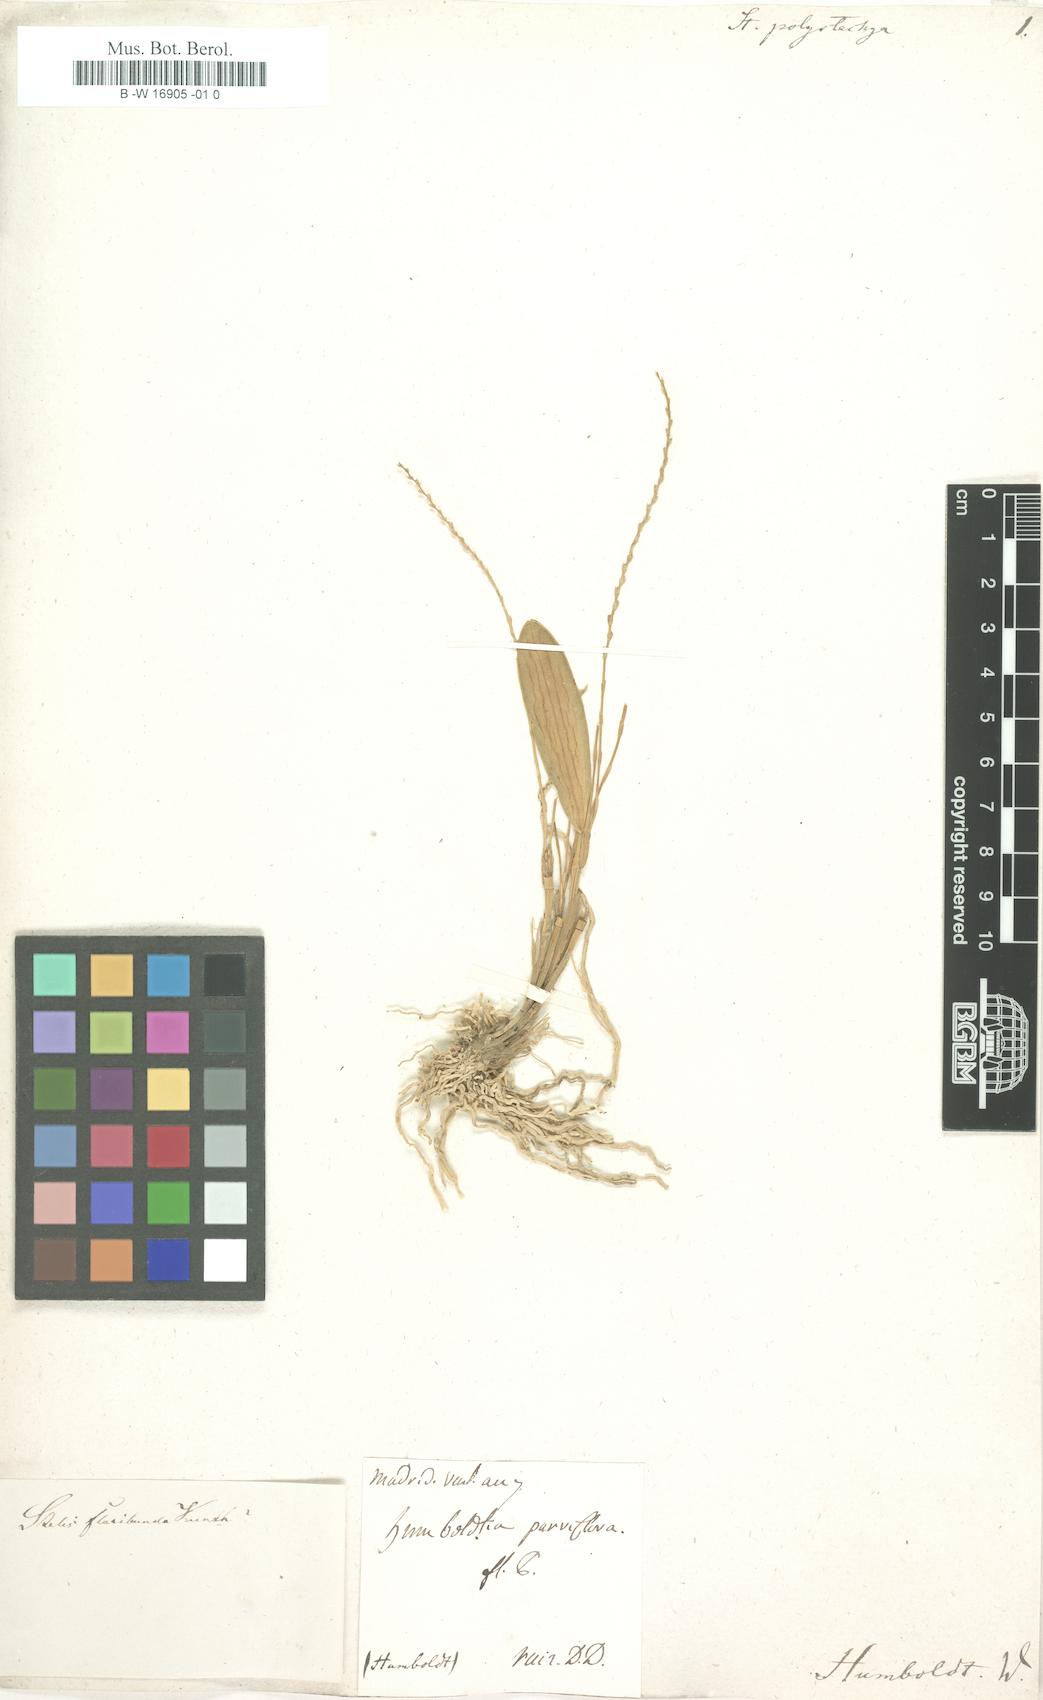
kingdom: Plantae
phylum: Tracheophyta
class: Liliopsida
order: Asparagales
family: Orchidaceae
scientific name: Orchidaceae
